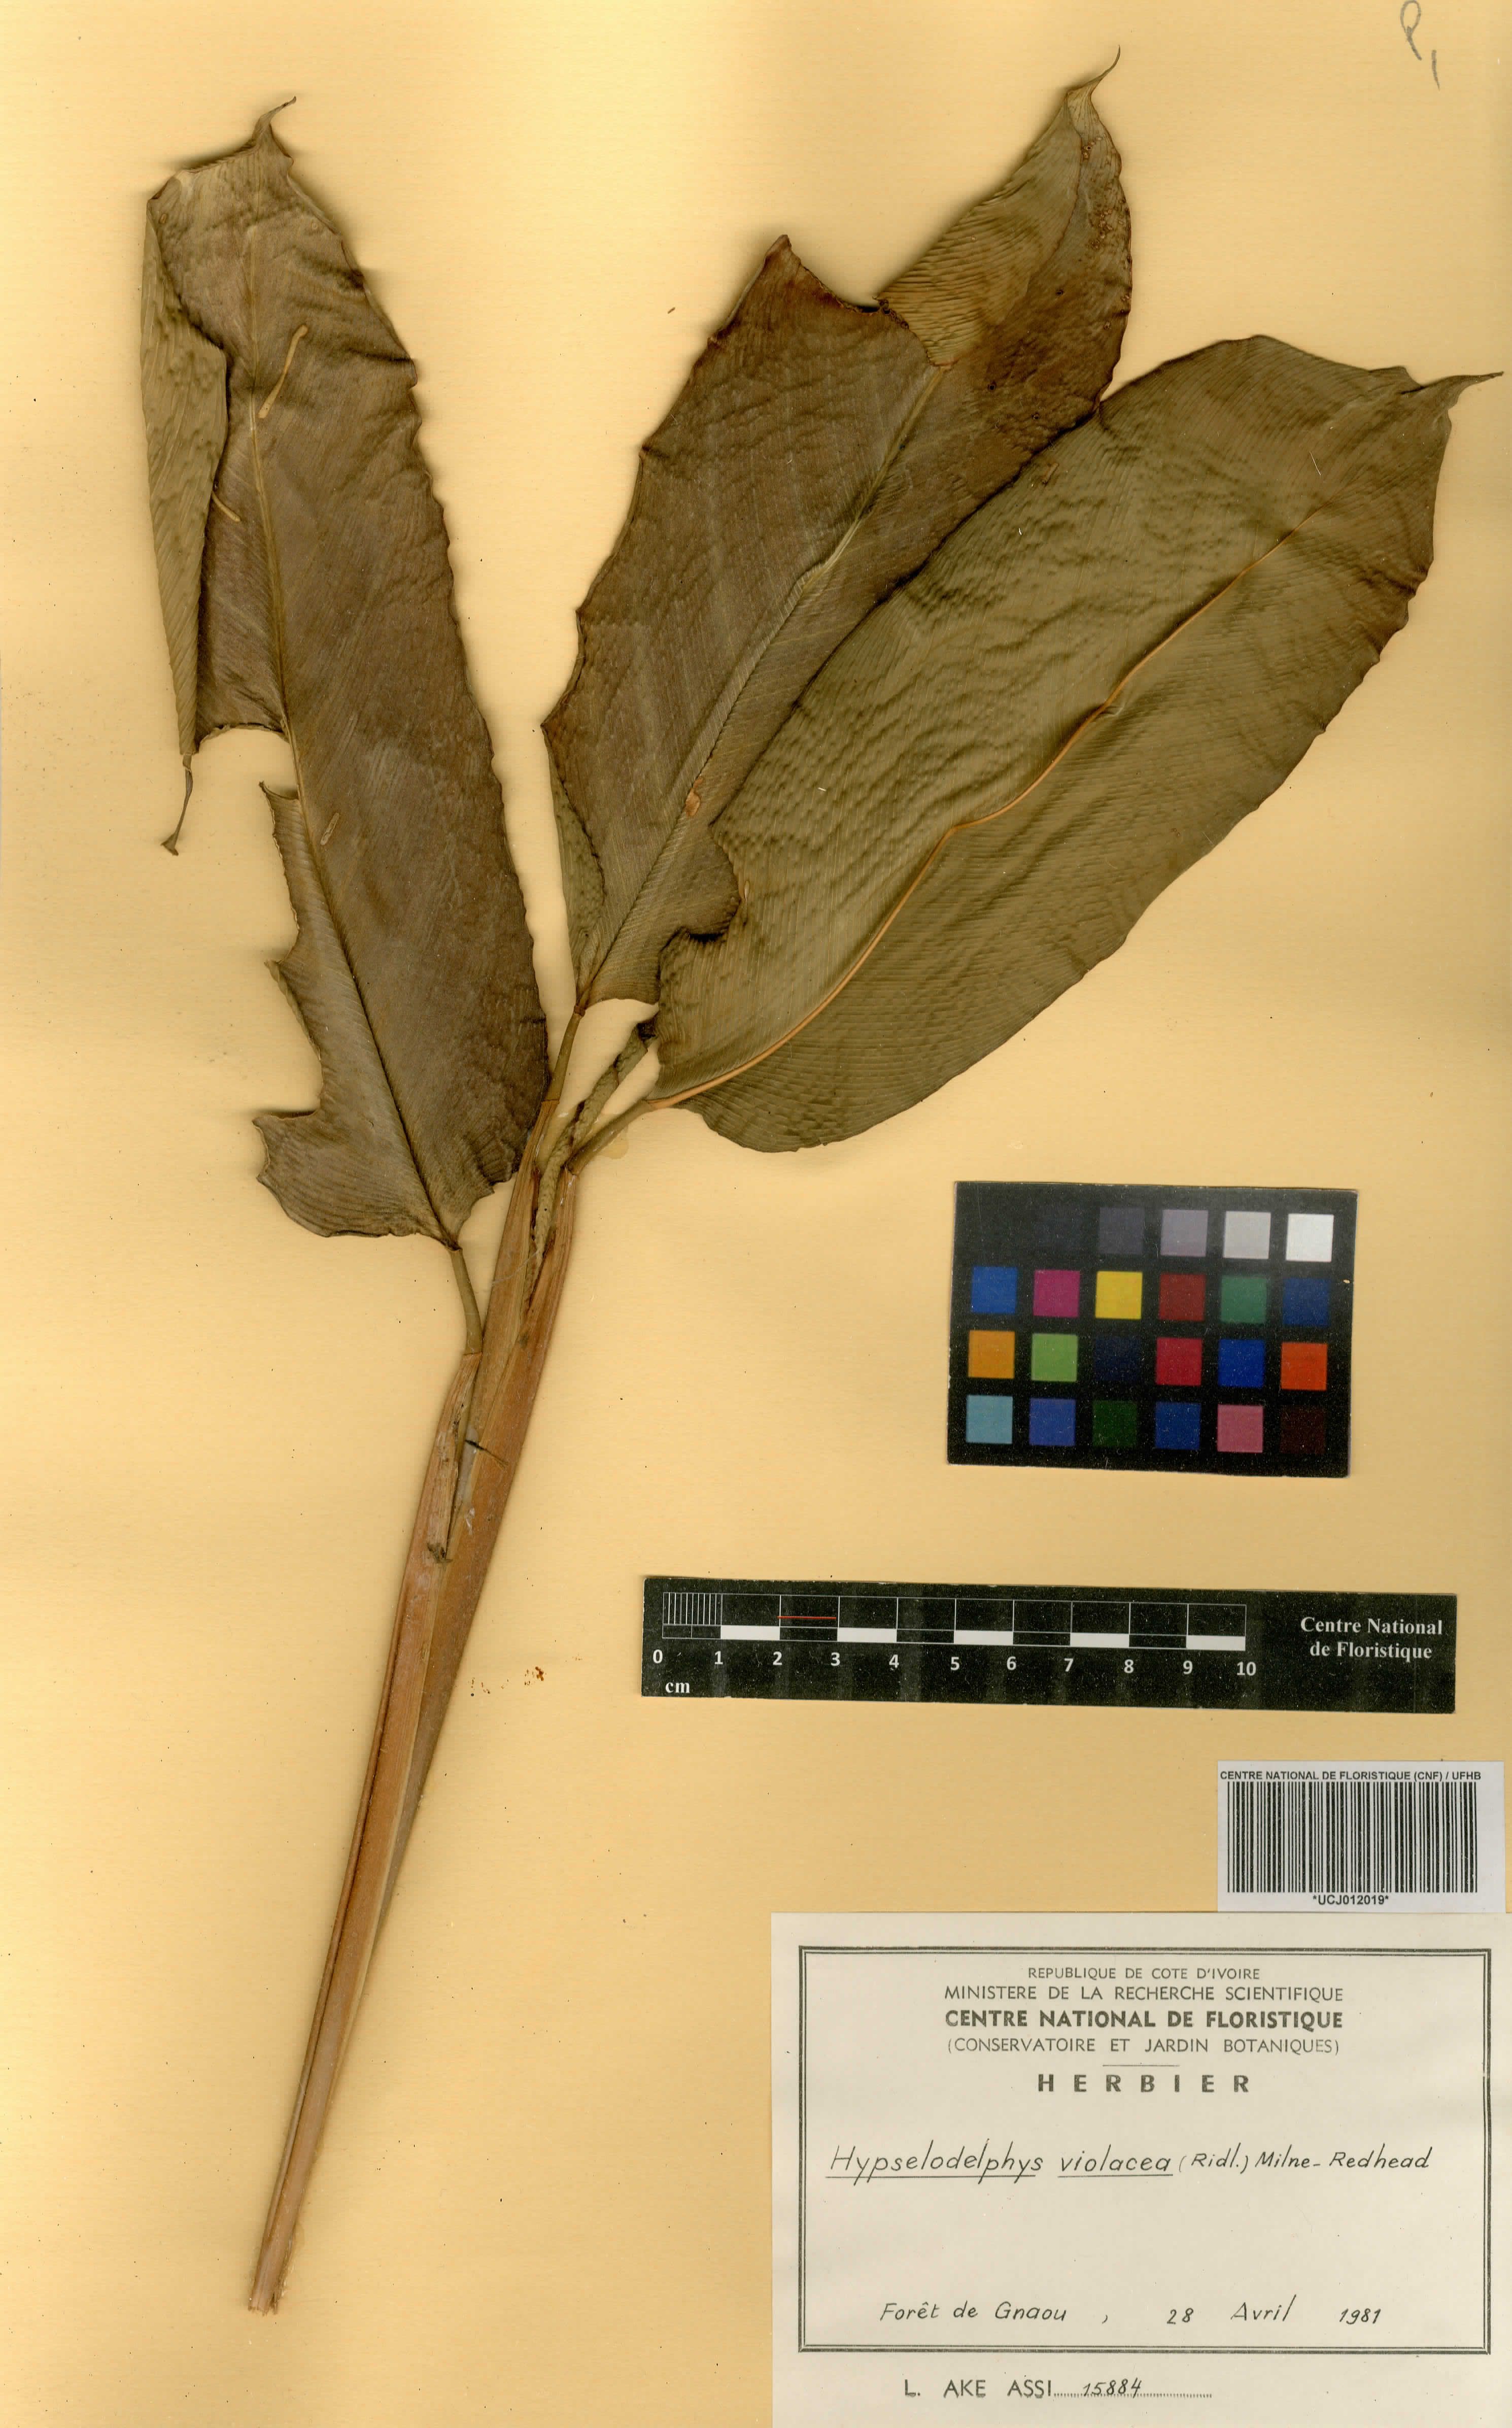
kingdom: Plantae
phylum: Tracheophyta
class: Liliopsida
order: Zingiberales
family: Marantaceae
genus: Hypselodelphys
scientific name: Hypselodelphys violacea
